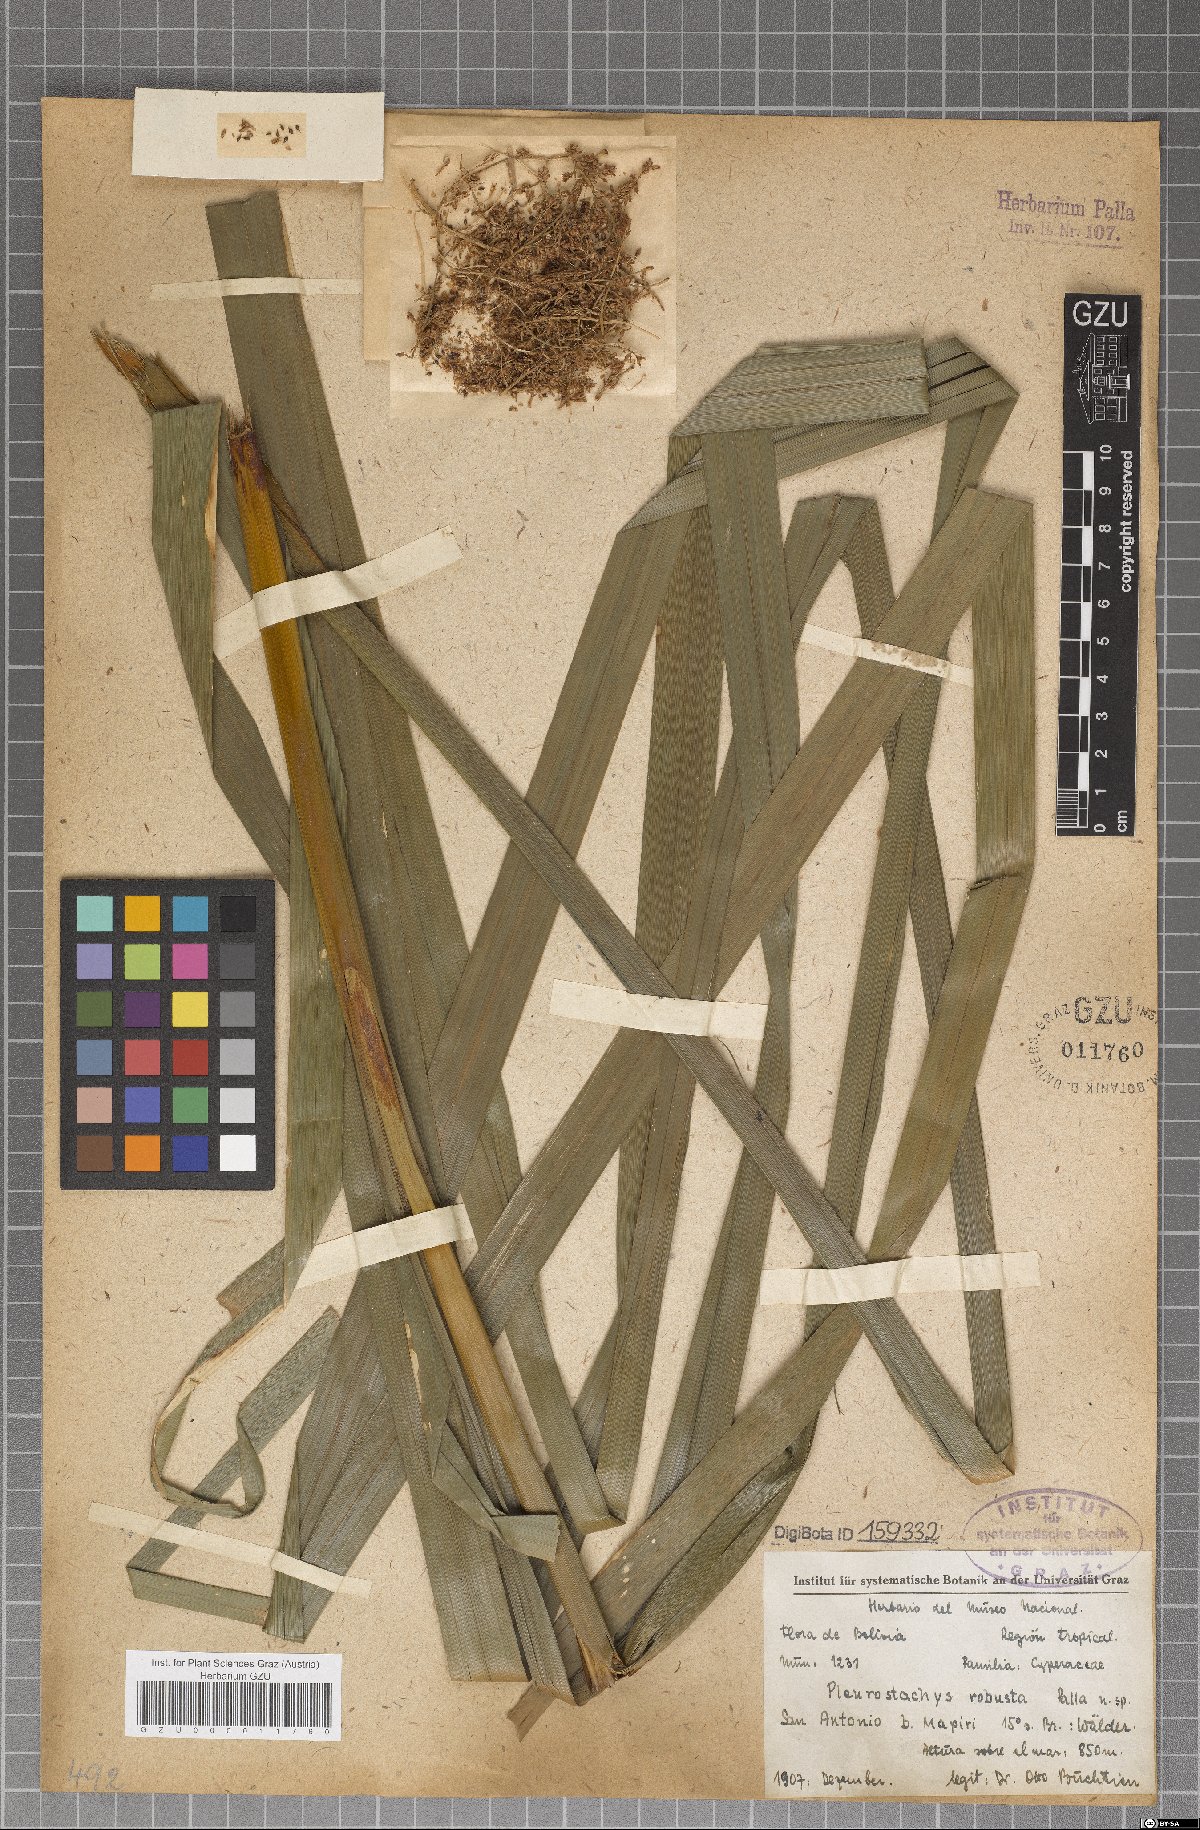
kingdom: Plantae
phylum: Tracheophyta
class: Liliopsida
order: Poales
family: Cyperaceae
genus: Rhynchospora
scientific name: Rhynchospora Pleurostachys robusta
